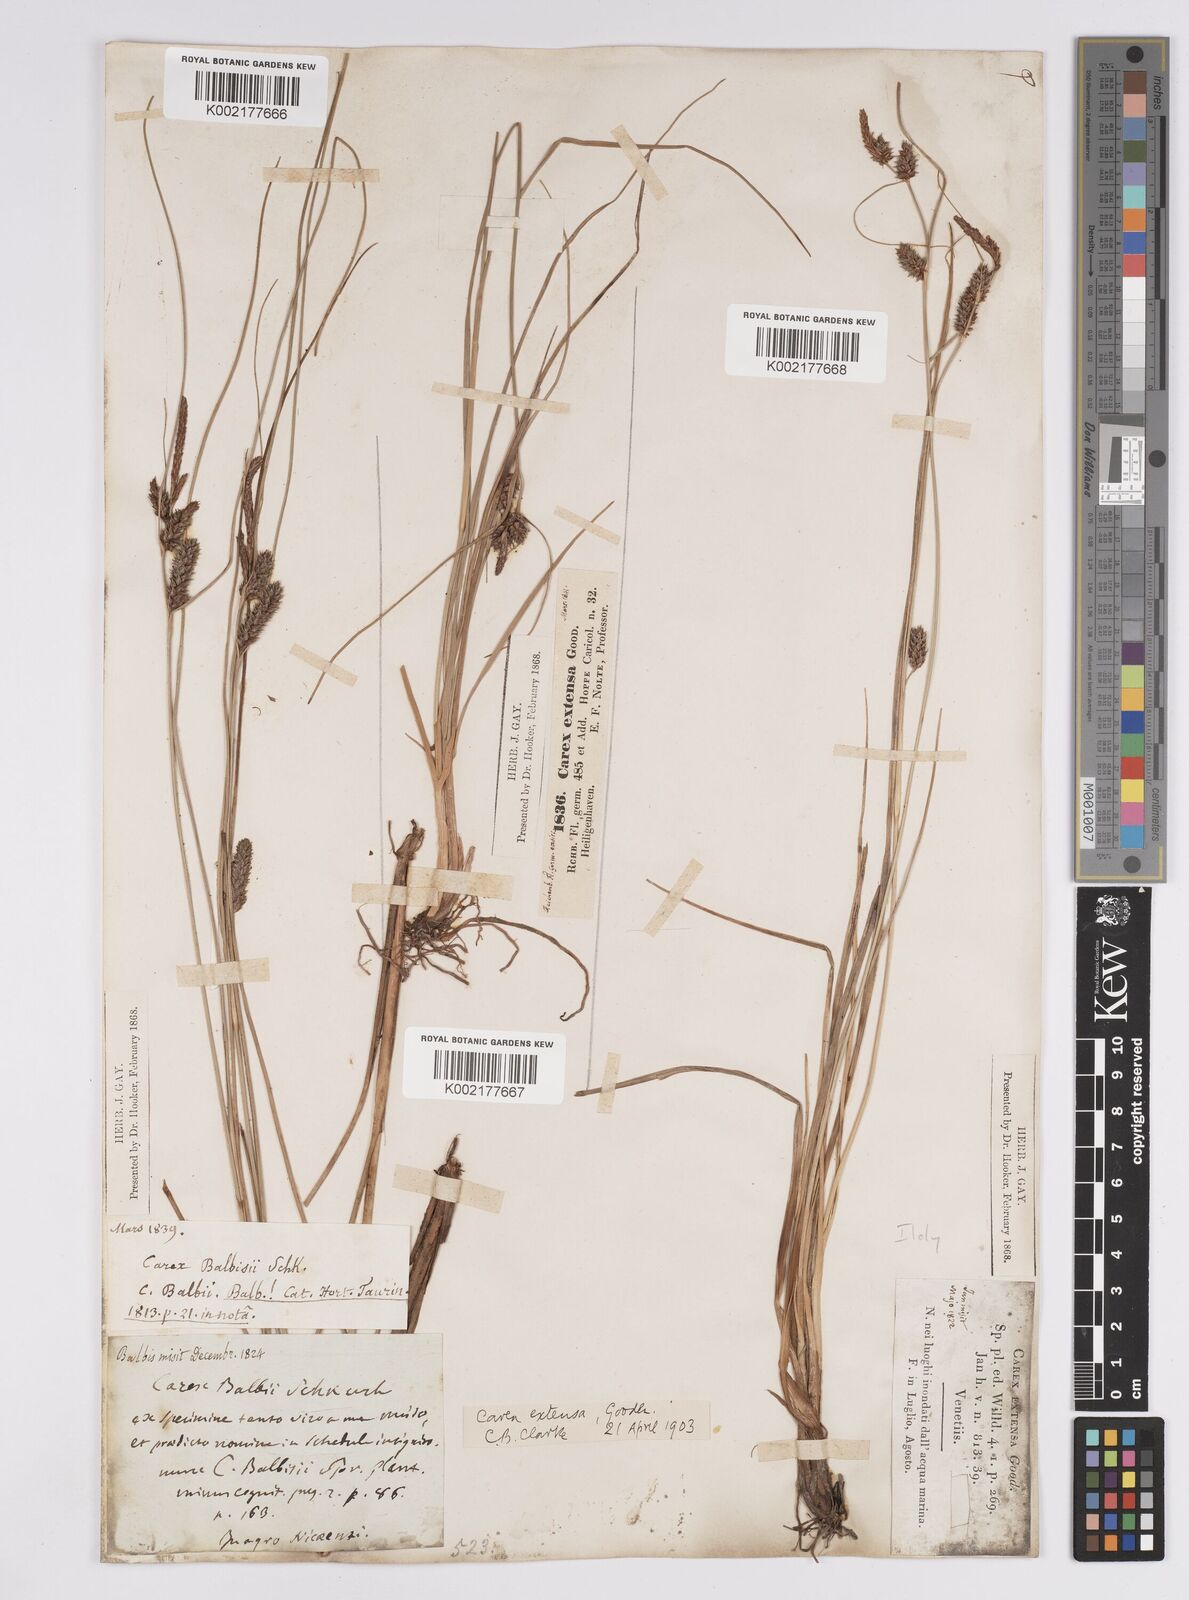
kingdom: Plantae
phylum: Tracheophyta
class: Liliopsida
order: Poales
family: Cyperaceae
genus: Carex
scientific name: Carex extensa
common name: Long-bracted sedge
